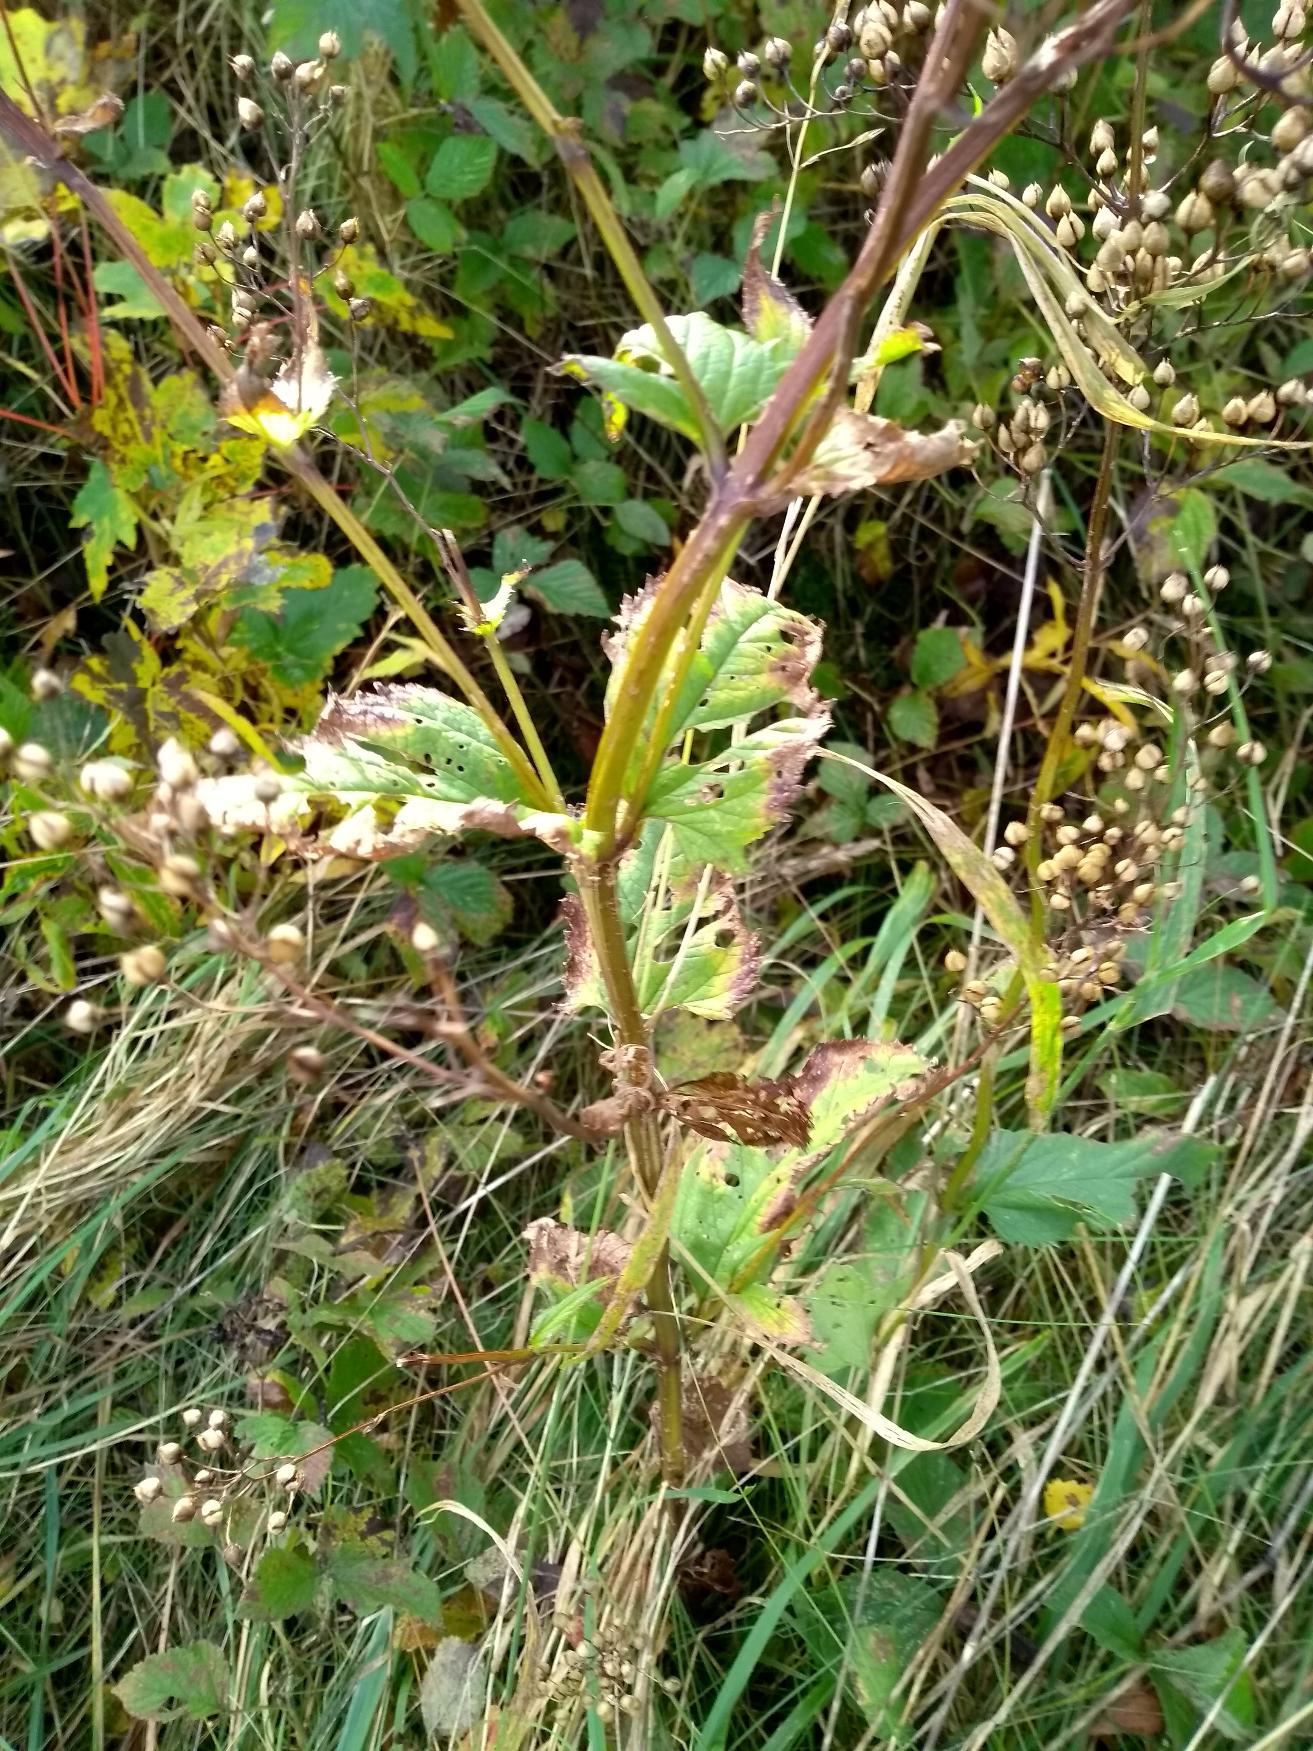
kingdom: Plantae
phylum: Tracheophyta
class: Magnoliopsida
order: Lamiales
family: Scrophulariaceae
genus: Scrophularia
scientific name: Scrophularia nodosa
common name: Knoldet brunrod
